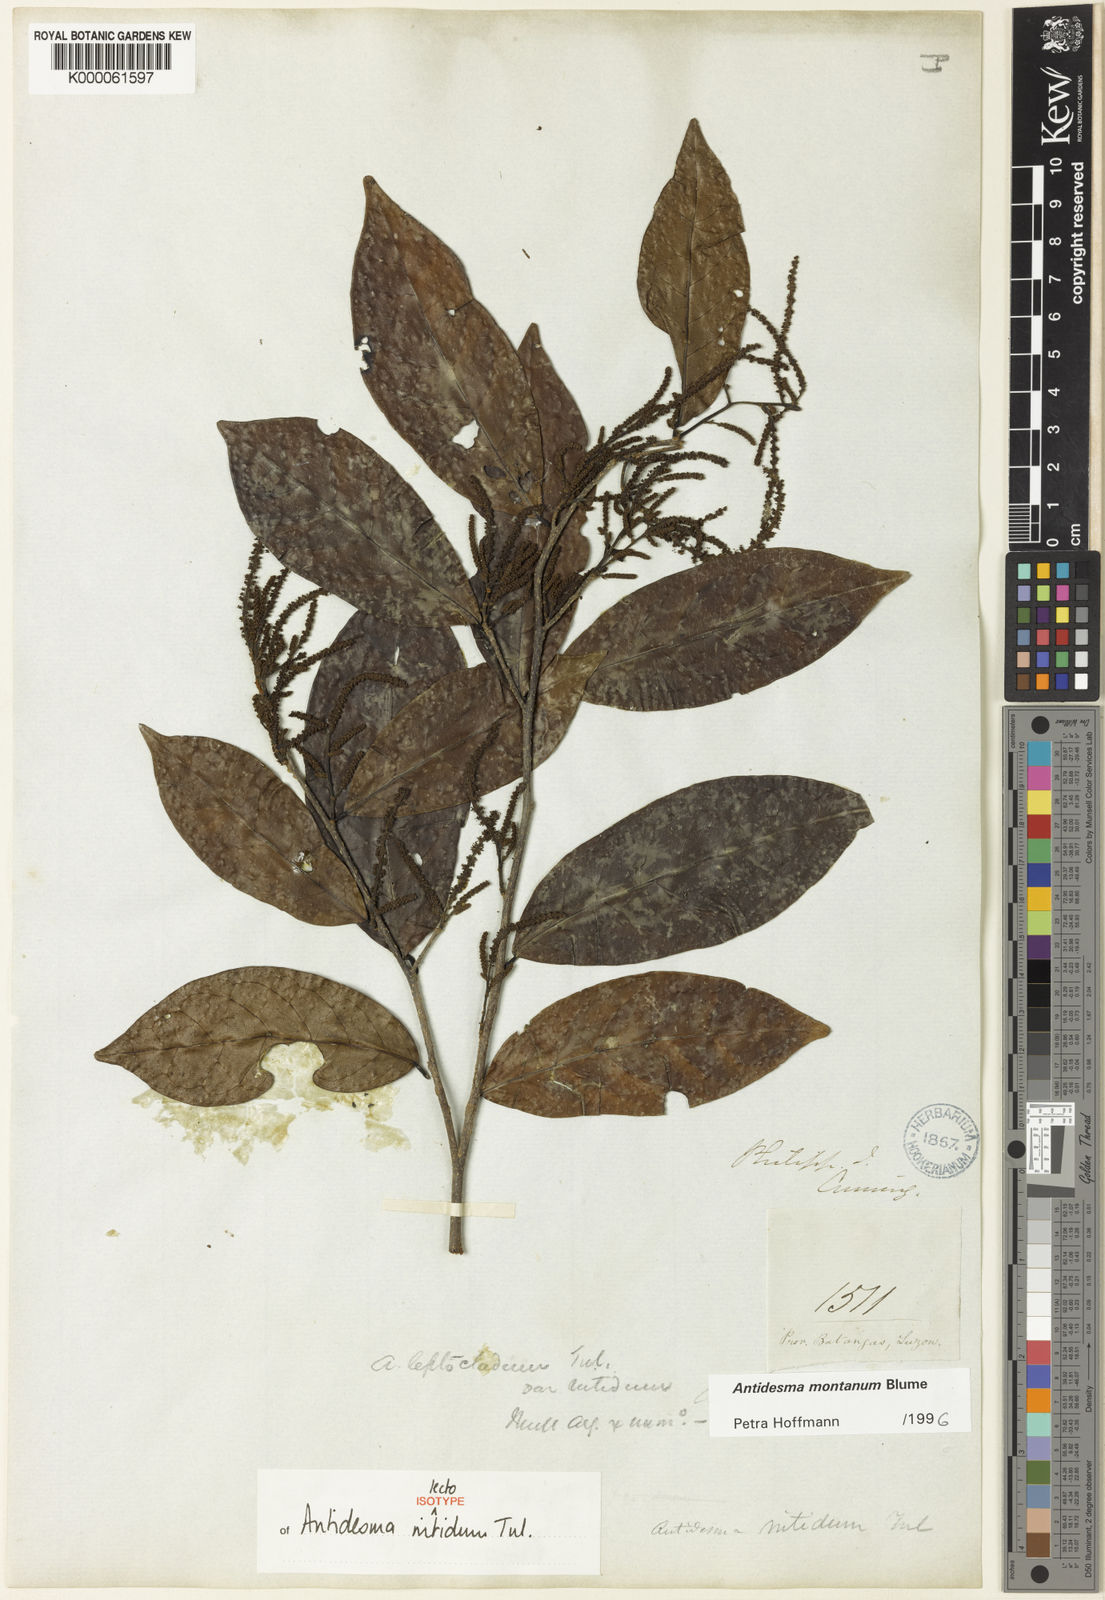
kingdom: Plantae
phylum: Tracheophyta
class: Magnoliopsida
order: Malpighiales
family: Phyllanthaceae
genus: Antidesma
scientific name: Antidesma montanum
